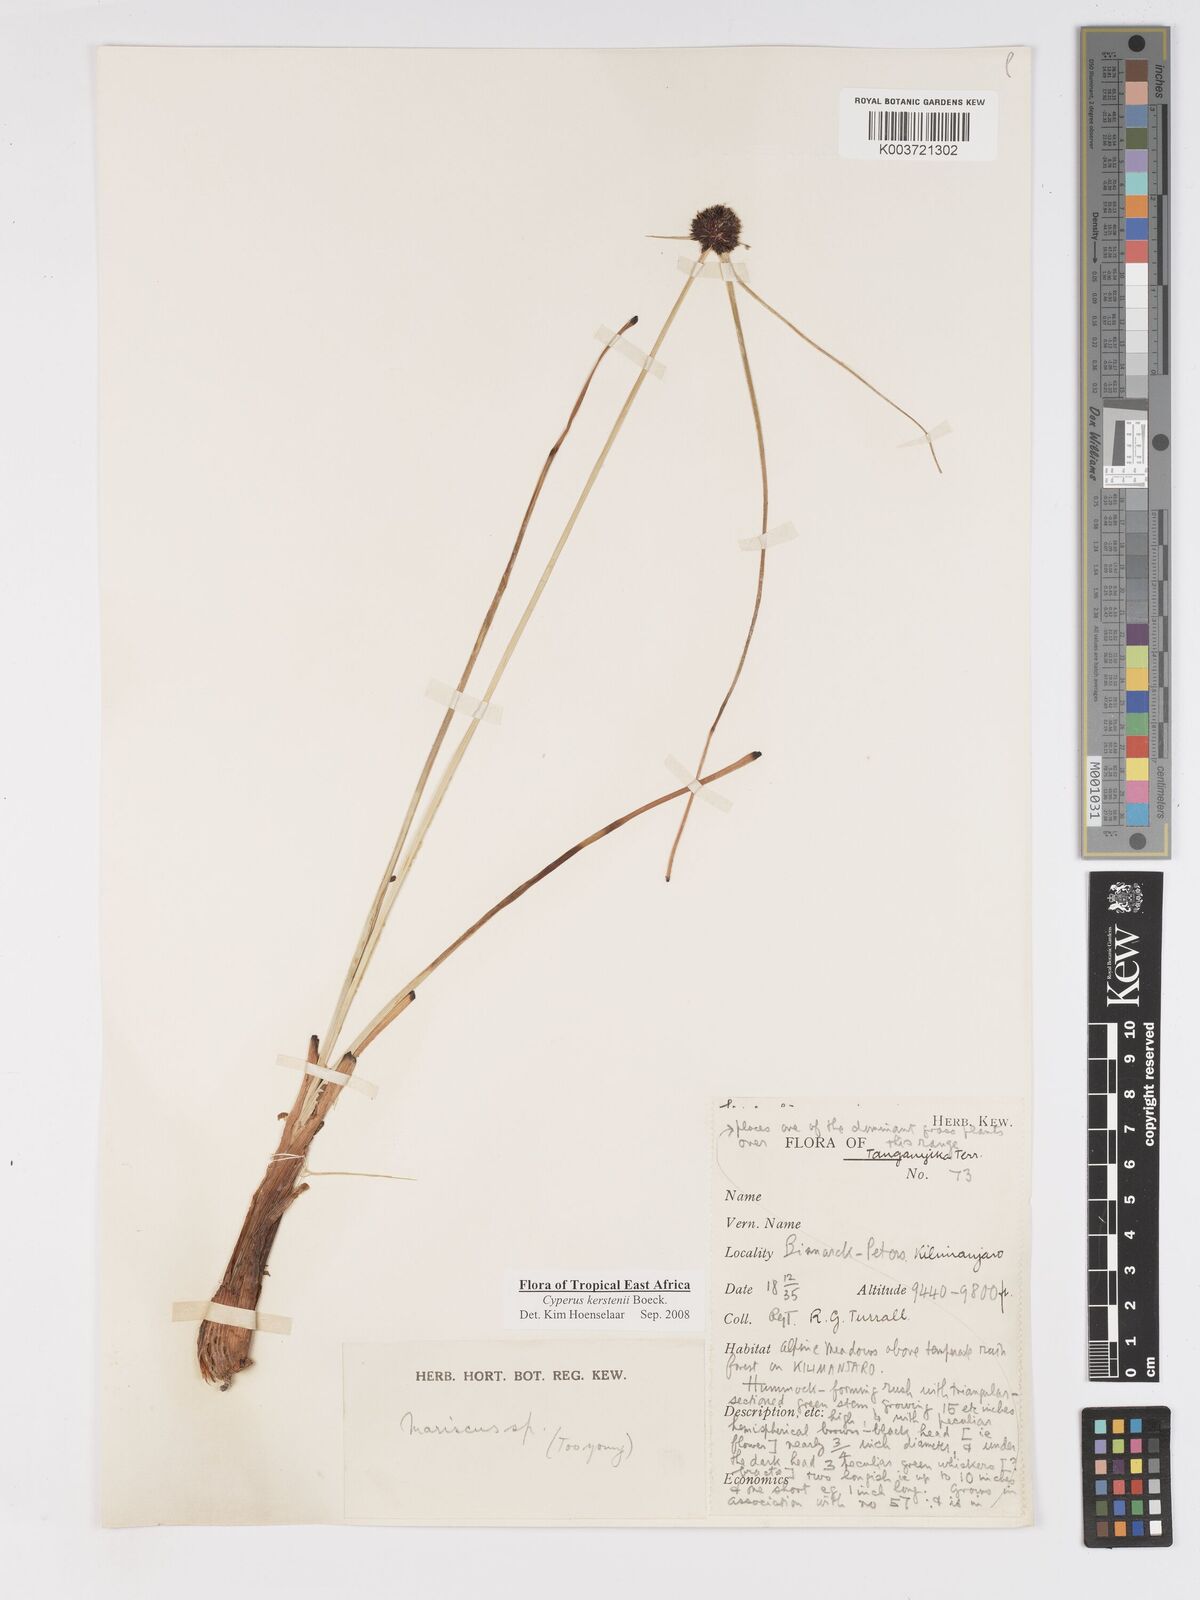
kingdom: Plantae
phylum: Tracheophyta
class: Liliopsida
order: Poales
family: Cyperaceae
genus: Cyperus
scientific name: Cyperus kerstenii
